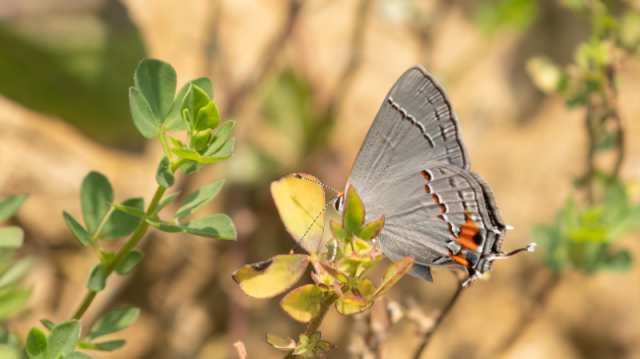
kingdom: Animalia
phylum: Arthropoda
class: Insecta
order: Lepidoptera
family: Lycaenidae
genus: Strymon
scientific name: Strymon melinus
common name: Gray Hairstreak
